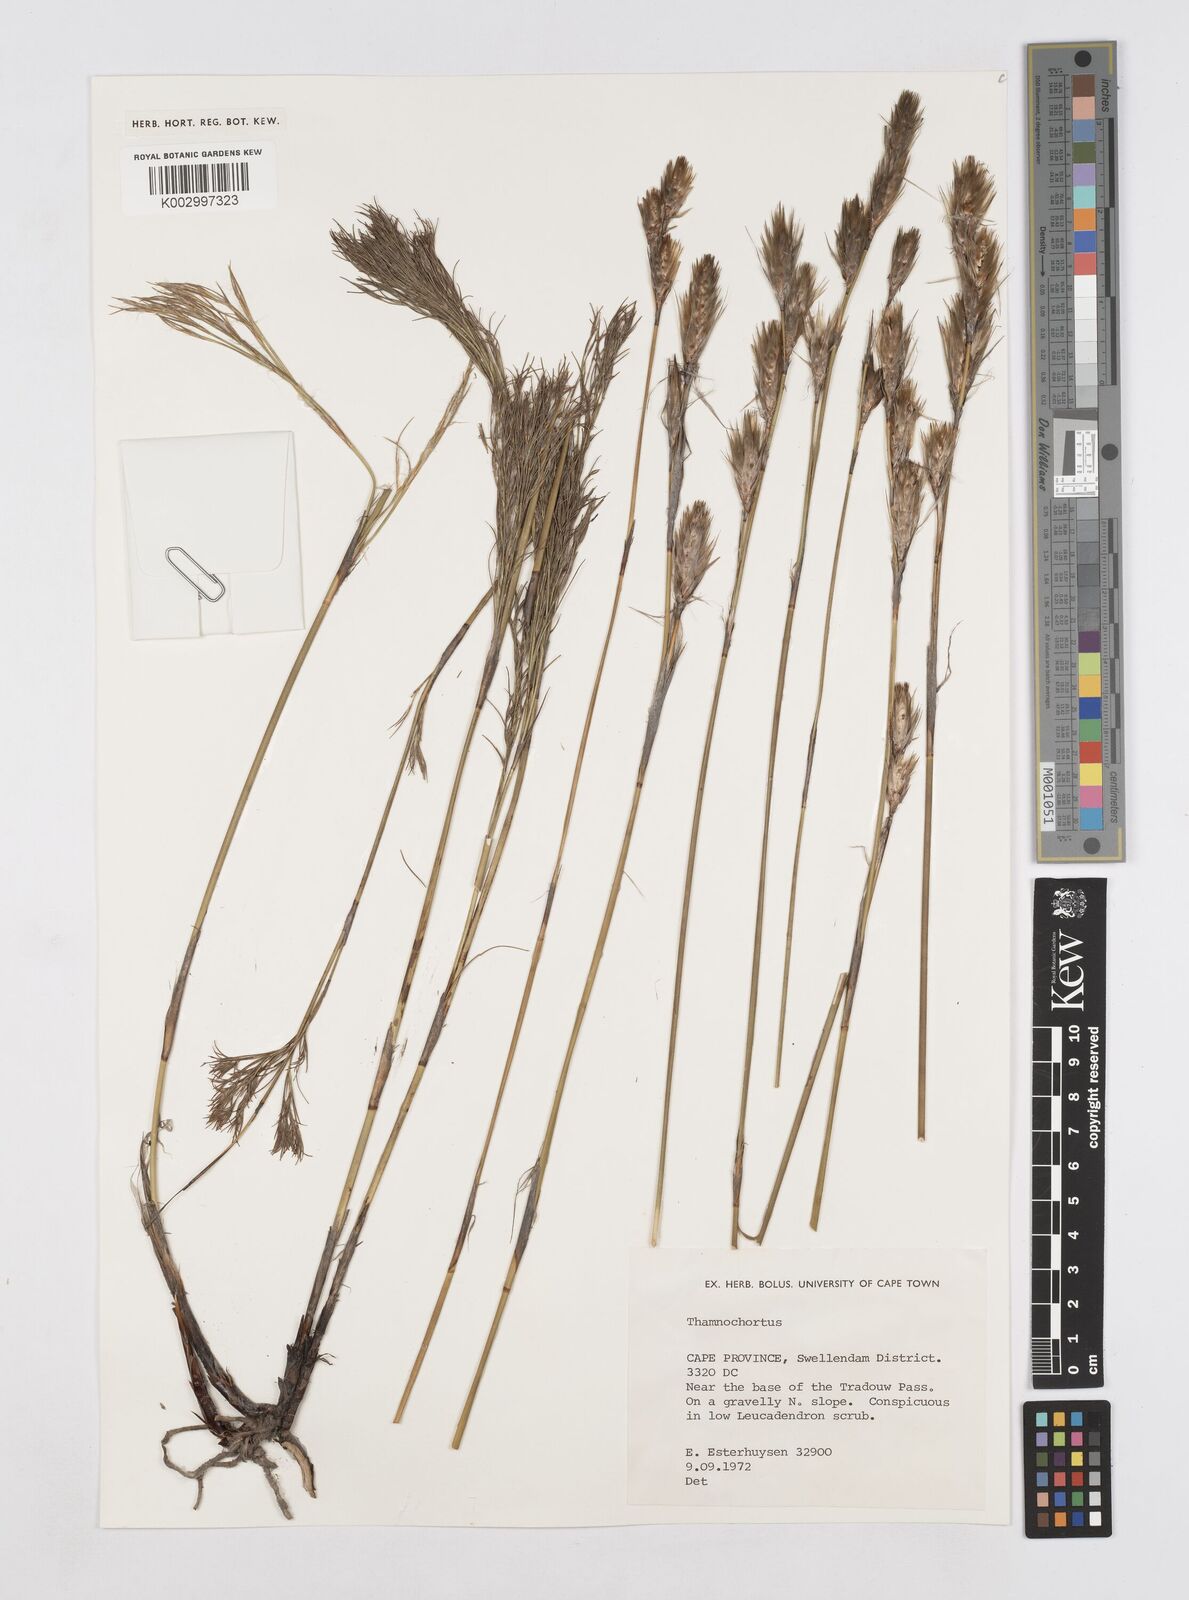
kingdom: Plantae
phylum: Tracheophyta
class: Liliopsida
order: Poales
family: Restionaceae
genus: Thamnochortus
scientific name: Thamnochortus
